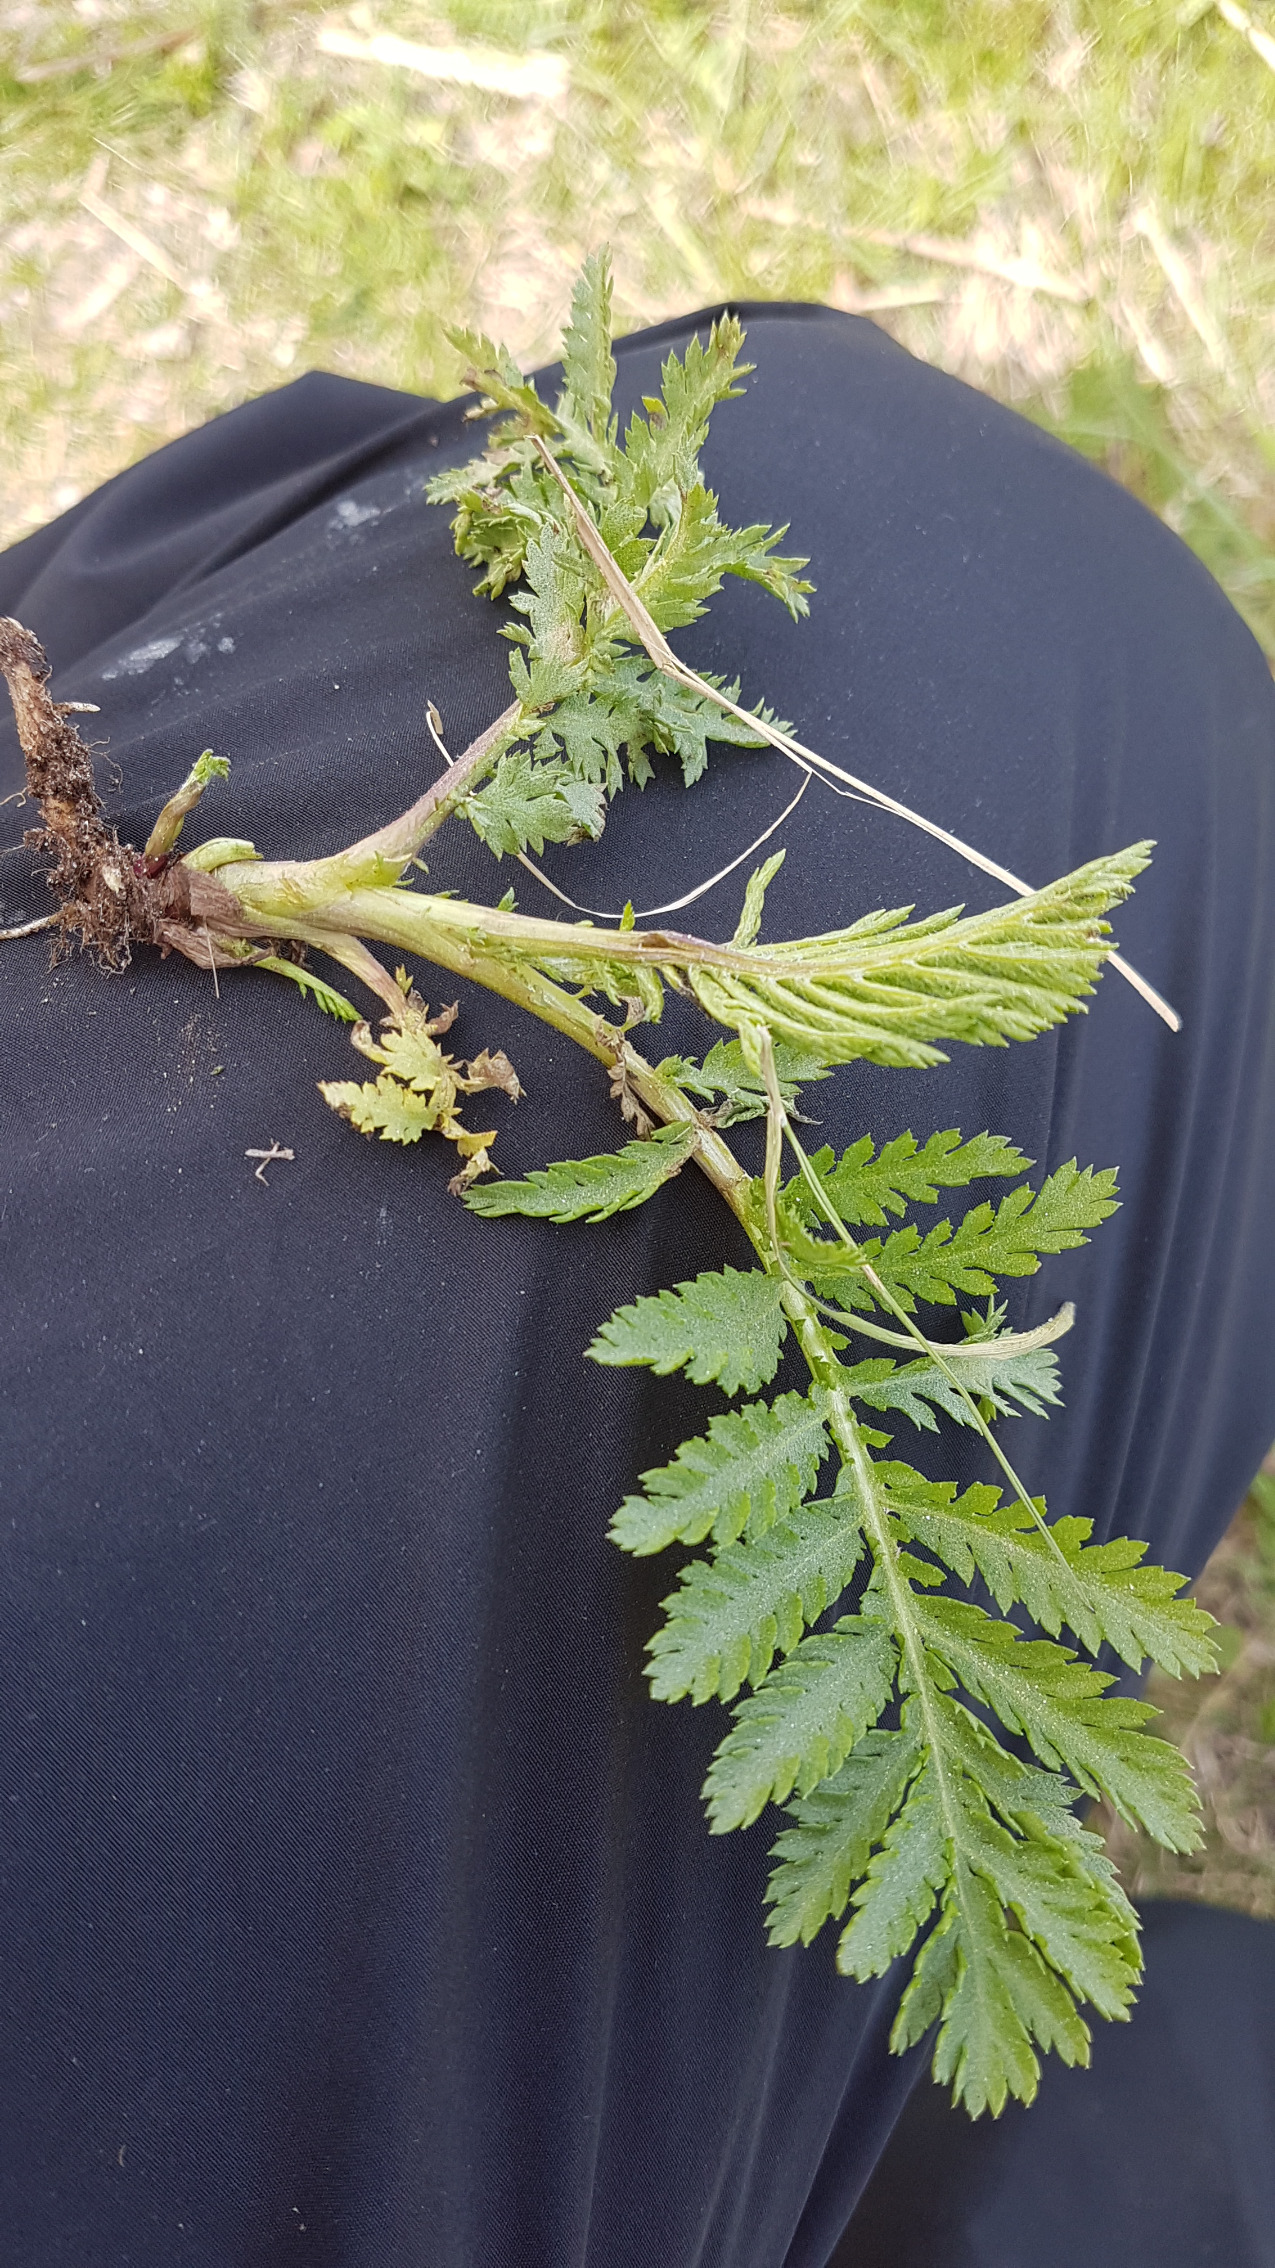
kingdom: Plantae
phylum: Tracheophyta
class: Magnoliopsida
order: Asterales
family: Asteraceae
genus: Tanacetum
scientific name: Tanacetum vulgare
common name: Rejnfan
